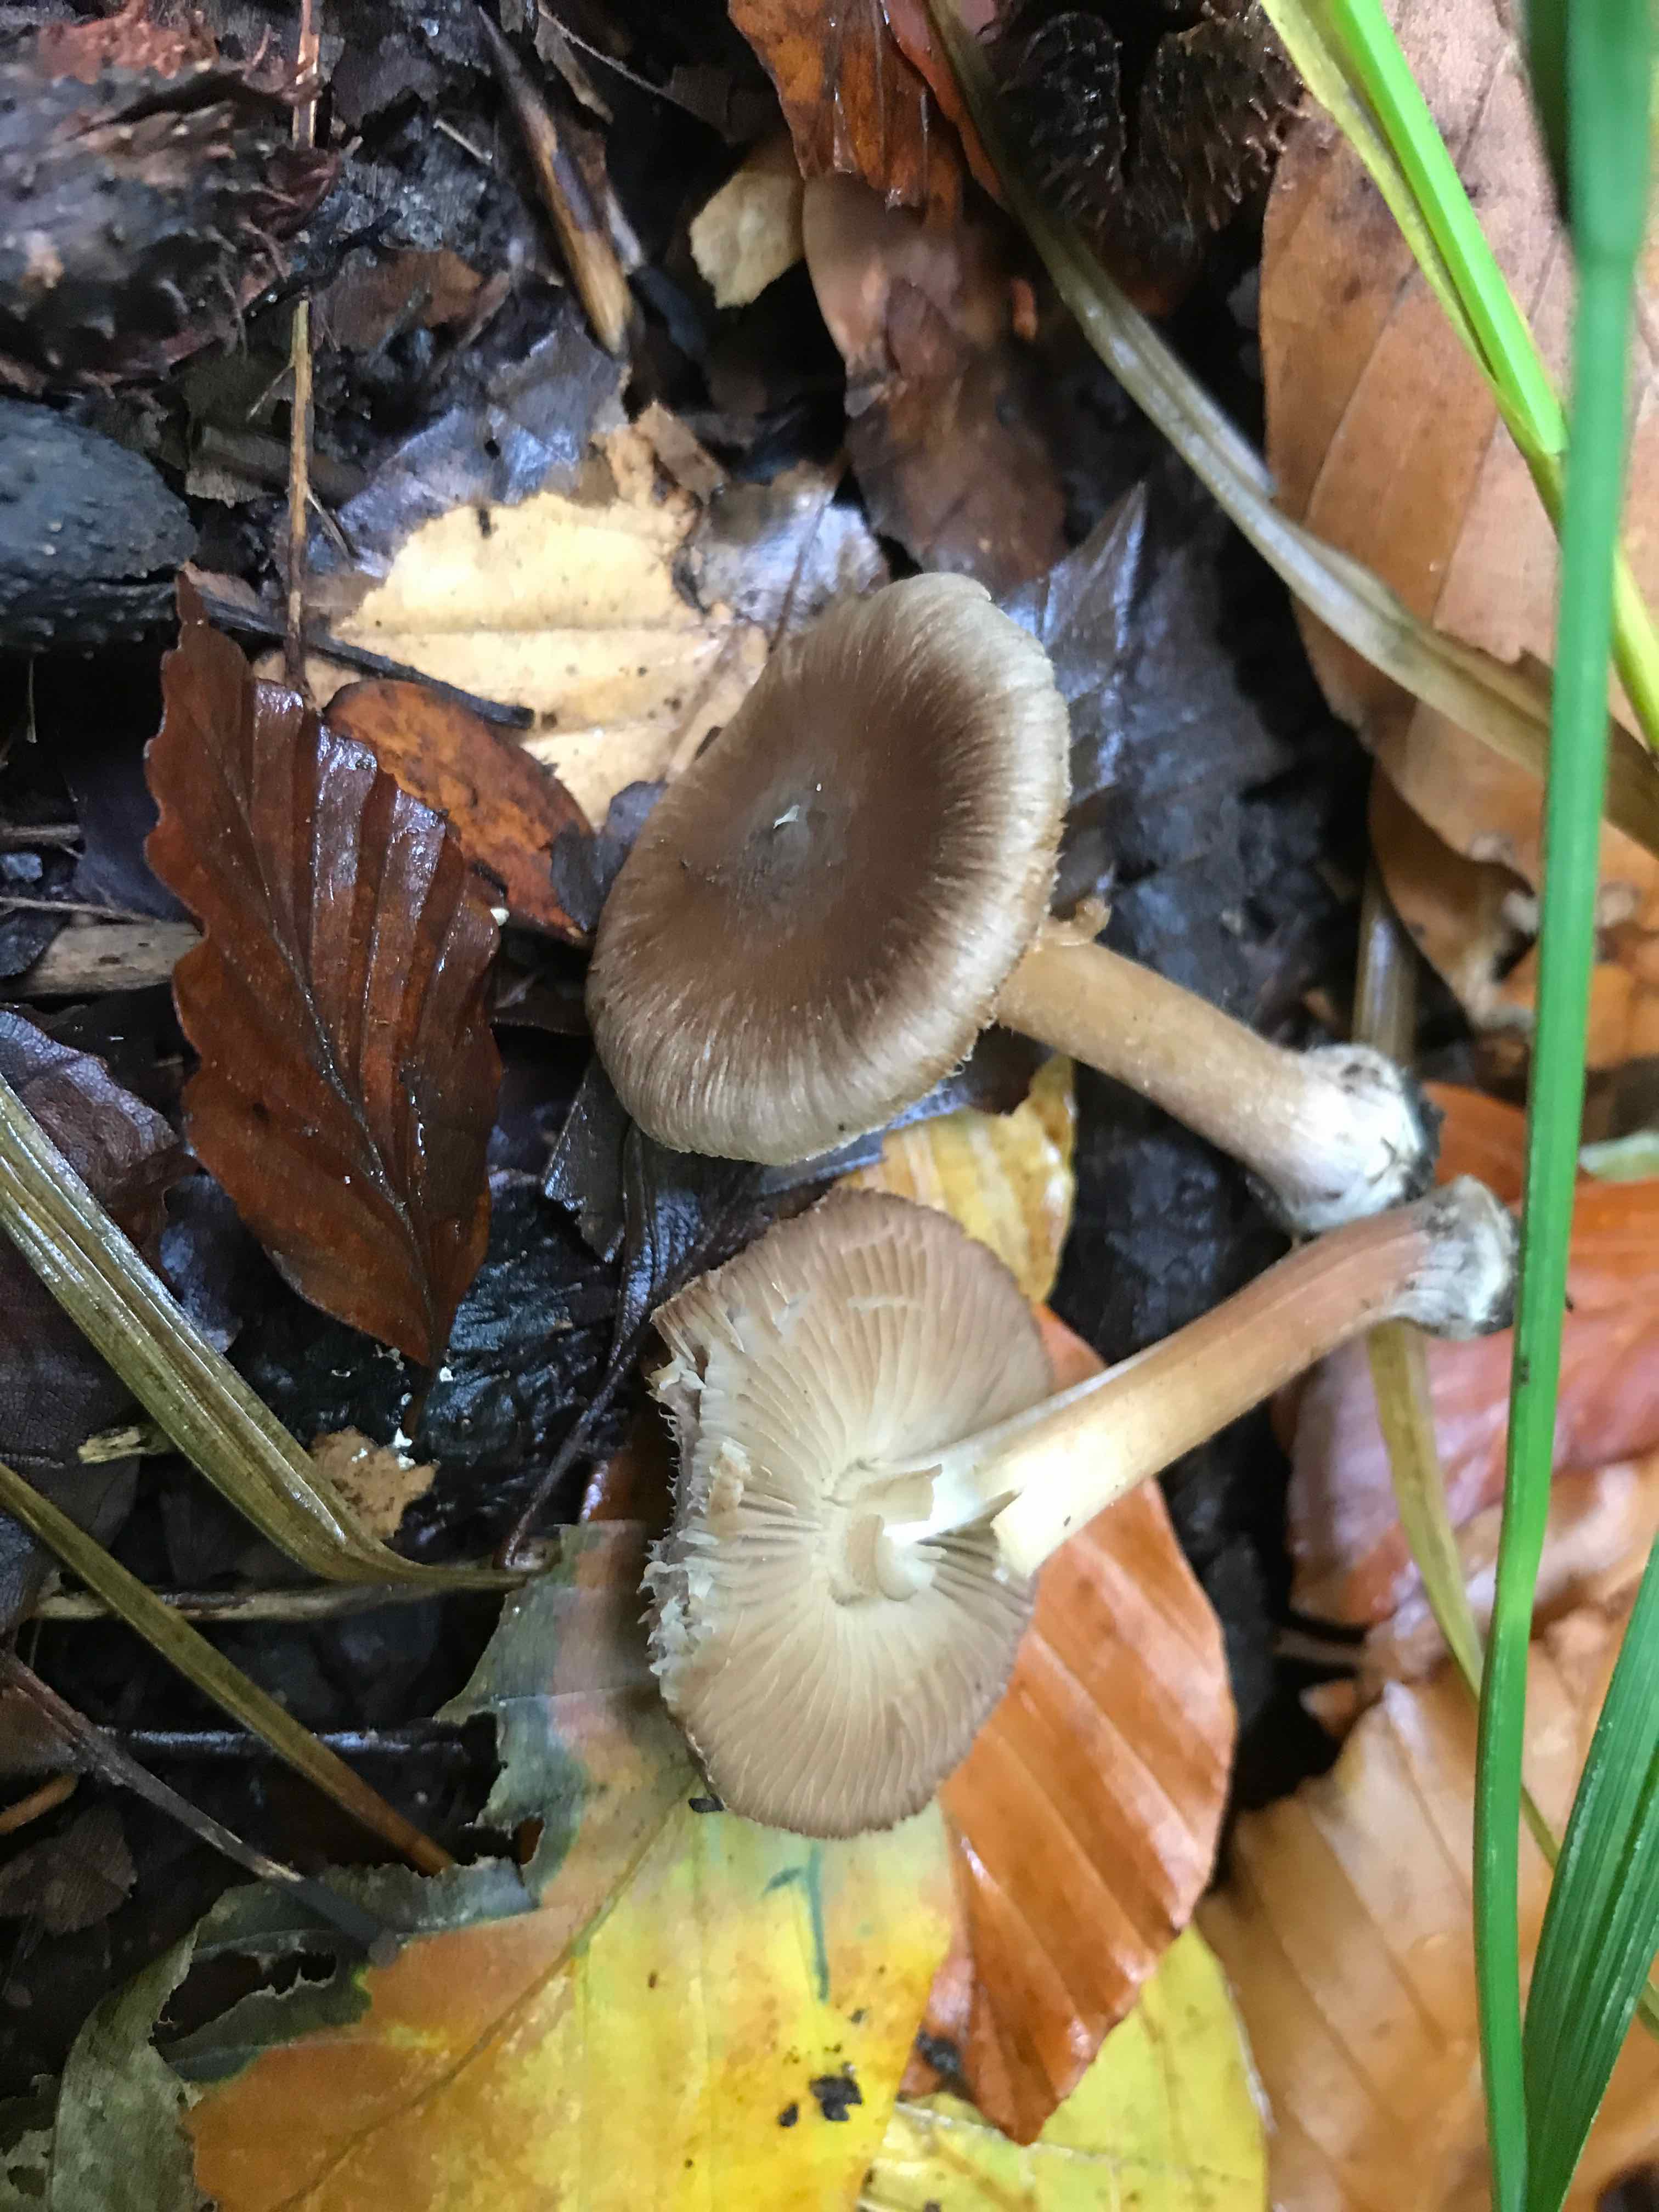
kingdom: Fungi
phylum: Basidiomycota
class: Agaricomycetes
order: Agaricales
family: Inocybaceae
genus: Inocybe
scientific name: Inocybe asterospora
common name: stjernesporet trævlhat
